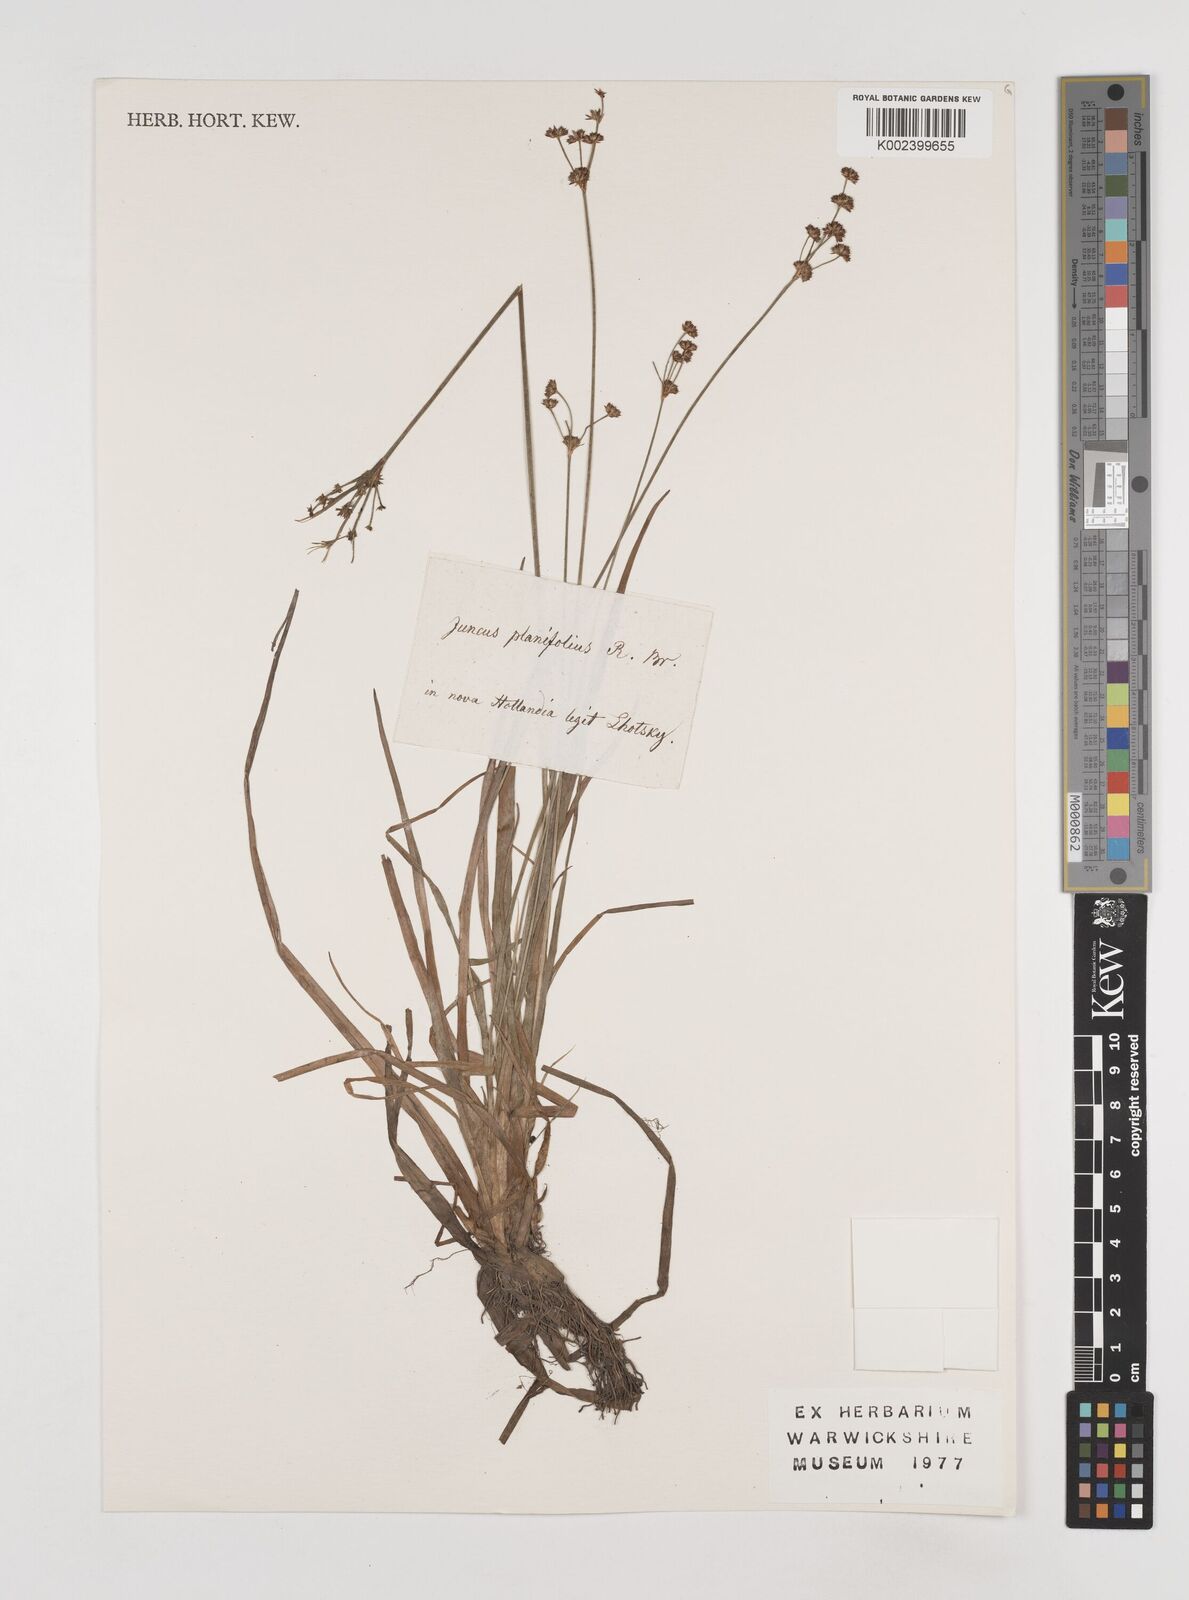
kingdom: Plantae
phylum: Tracheophyta
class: Liliopsida
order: Poales
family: Juncaceae
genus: Juncus
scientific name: Juncus planifolius
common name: Broadleaf rush
